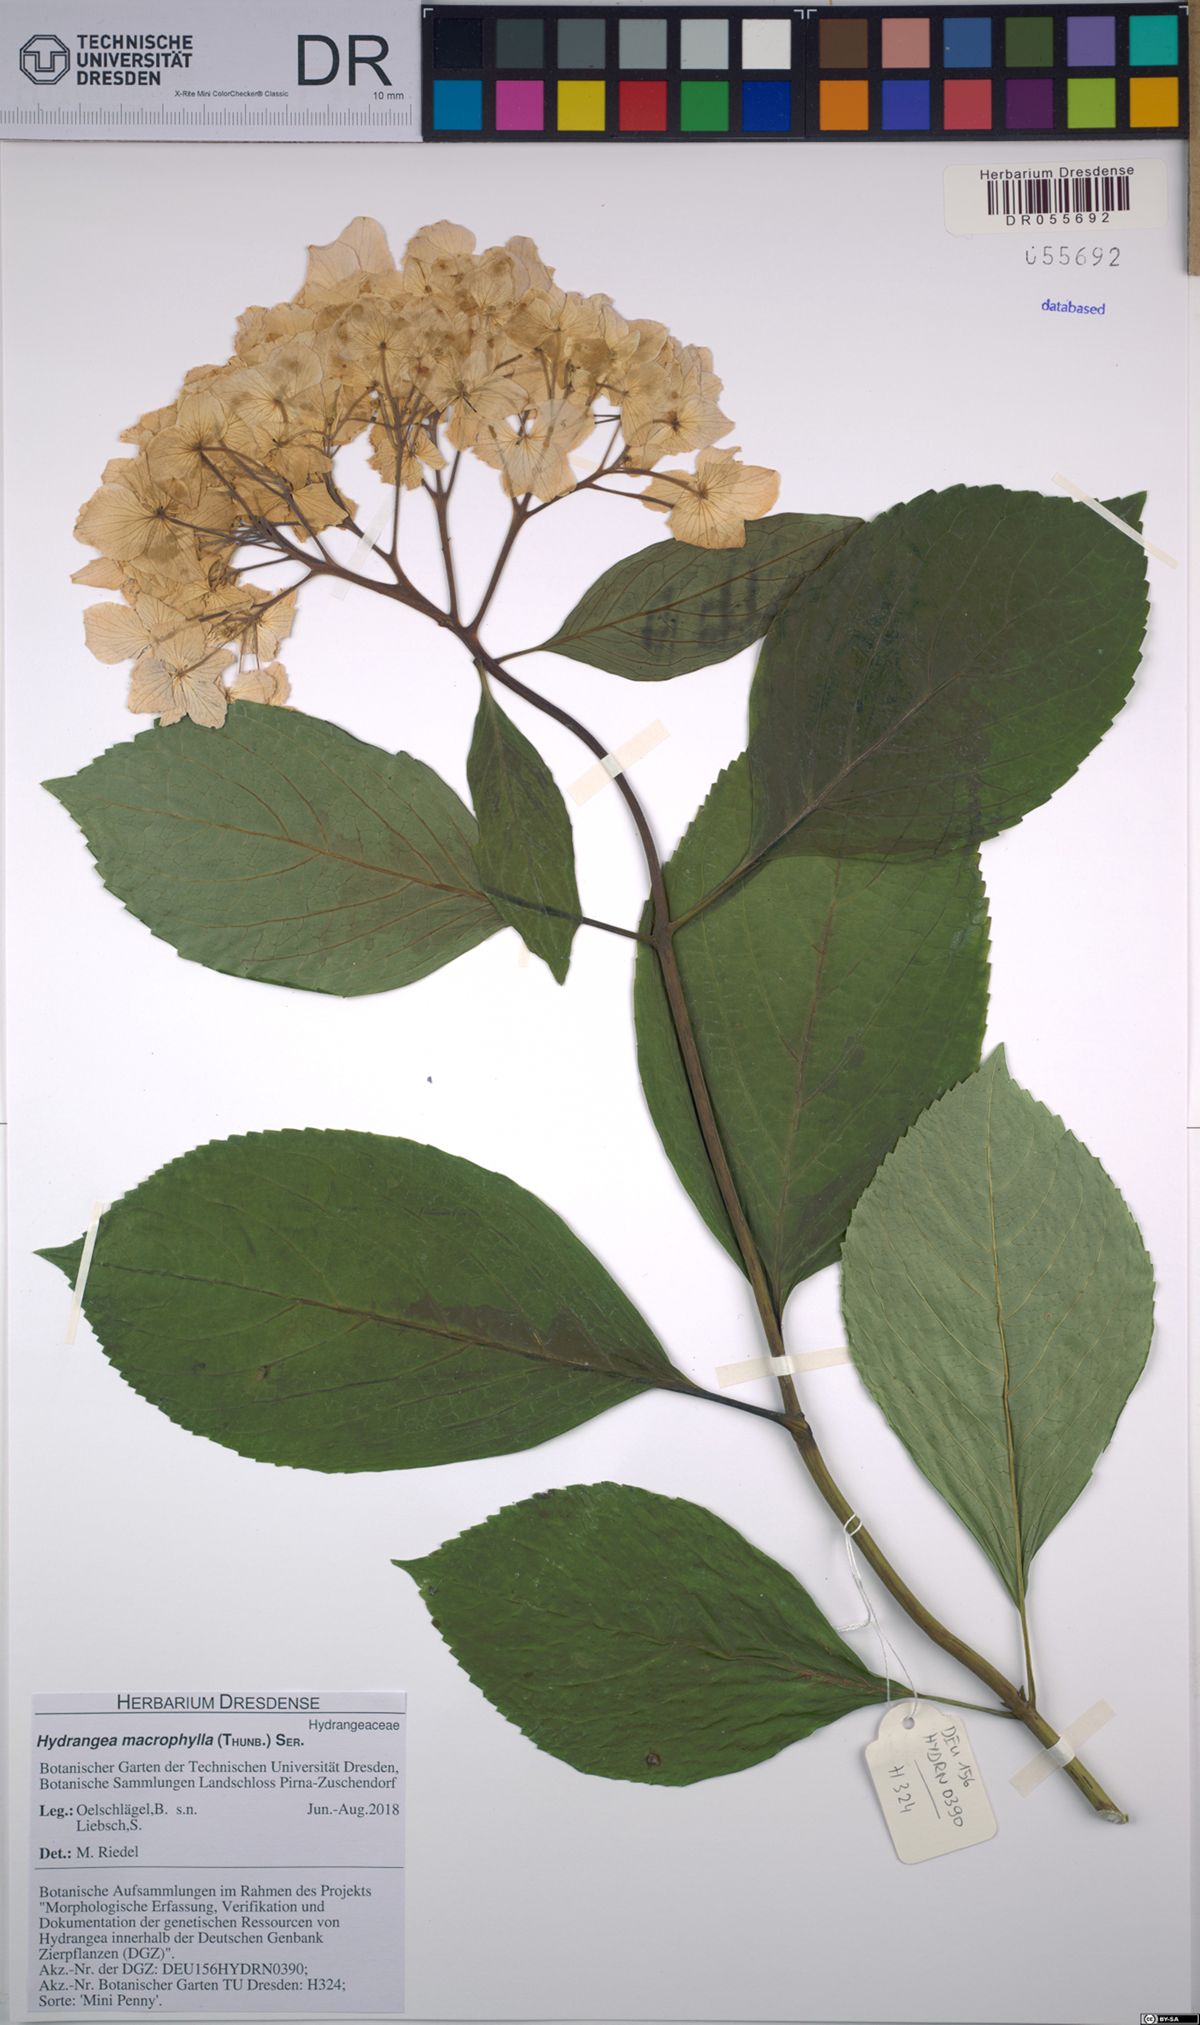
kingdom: Plantae
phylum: Tracheophyta
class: Magnoliopsida
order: Cornales
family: Hydrangeaceae
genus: Hydrangea
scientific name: Hydrangea macrophylla
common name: Hydrangea
